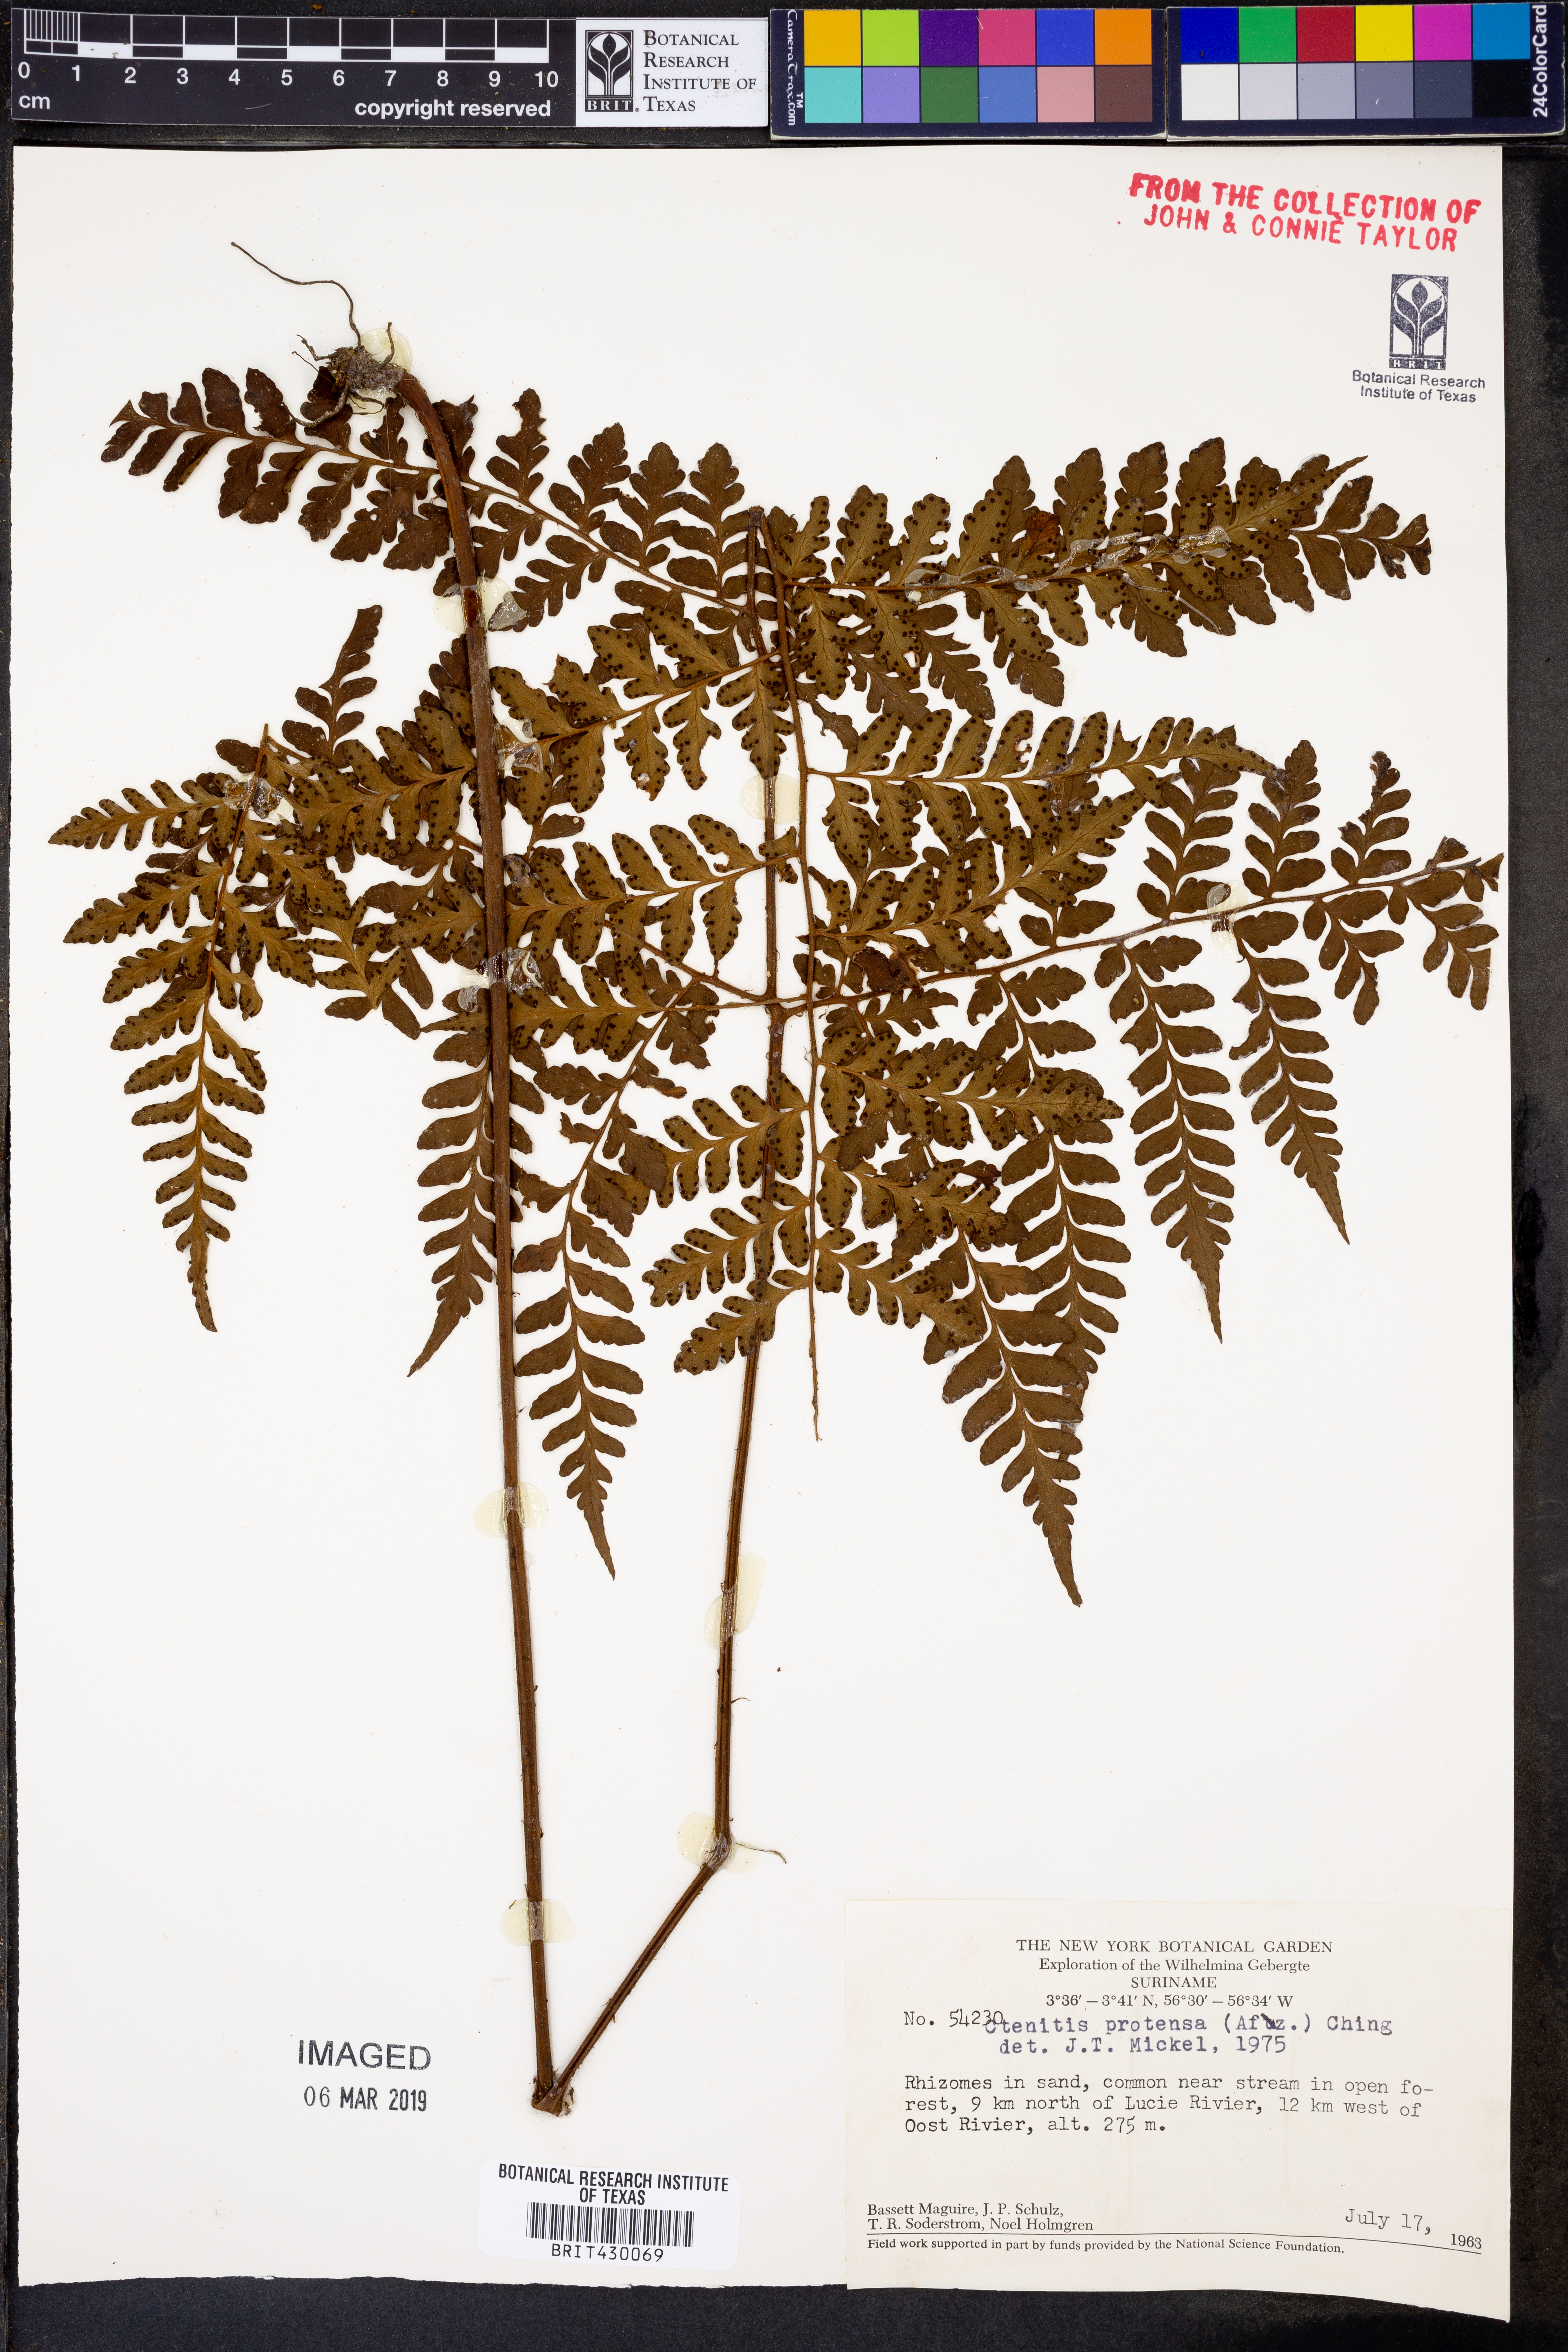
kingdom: Plantae
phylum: Tracheophyta
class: Polypodiopsida
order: Polypodiales
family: Tectariaceae
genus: Triplophyllum
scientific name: Triplophyllum protensum
